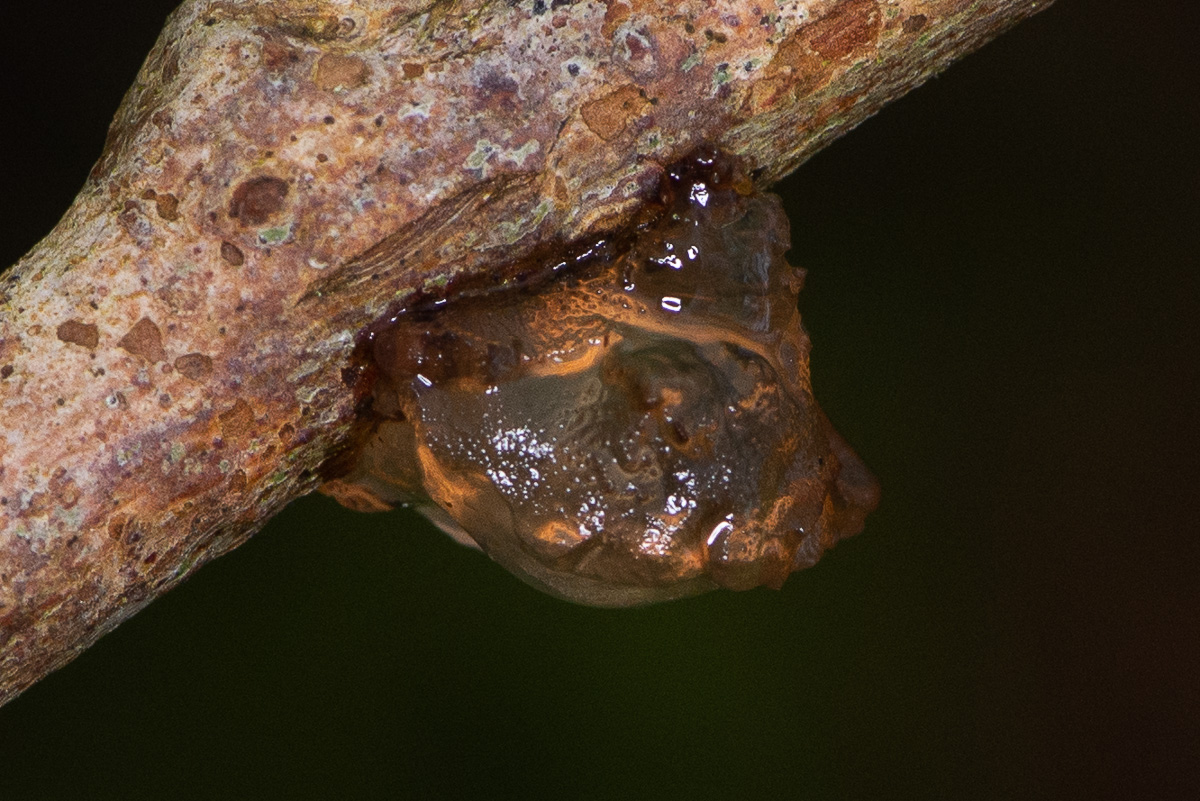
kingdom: Fungi
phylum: Basidiomycota
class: Agaricomycetes
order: Auriculariales
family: Auriculariaceae
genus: Exidia
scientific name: Exidia recisa
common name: pile-bævretop
